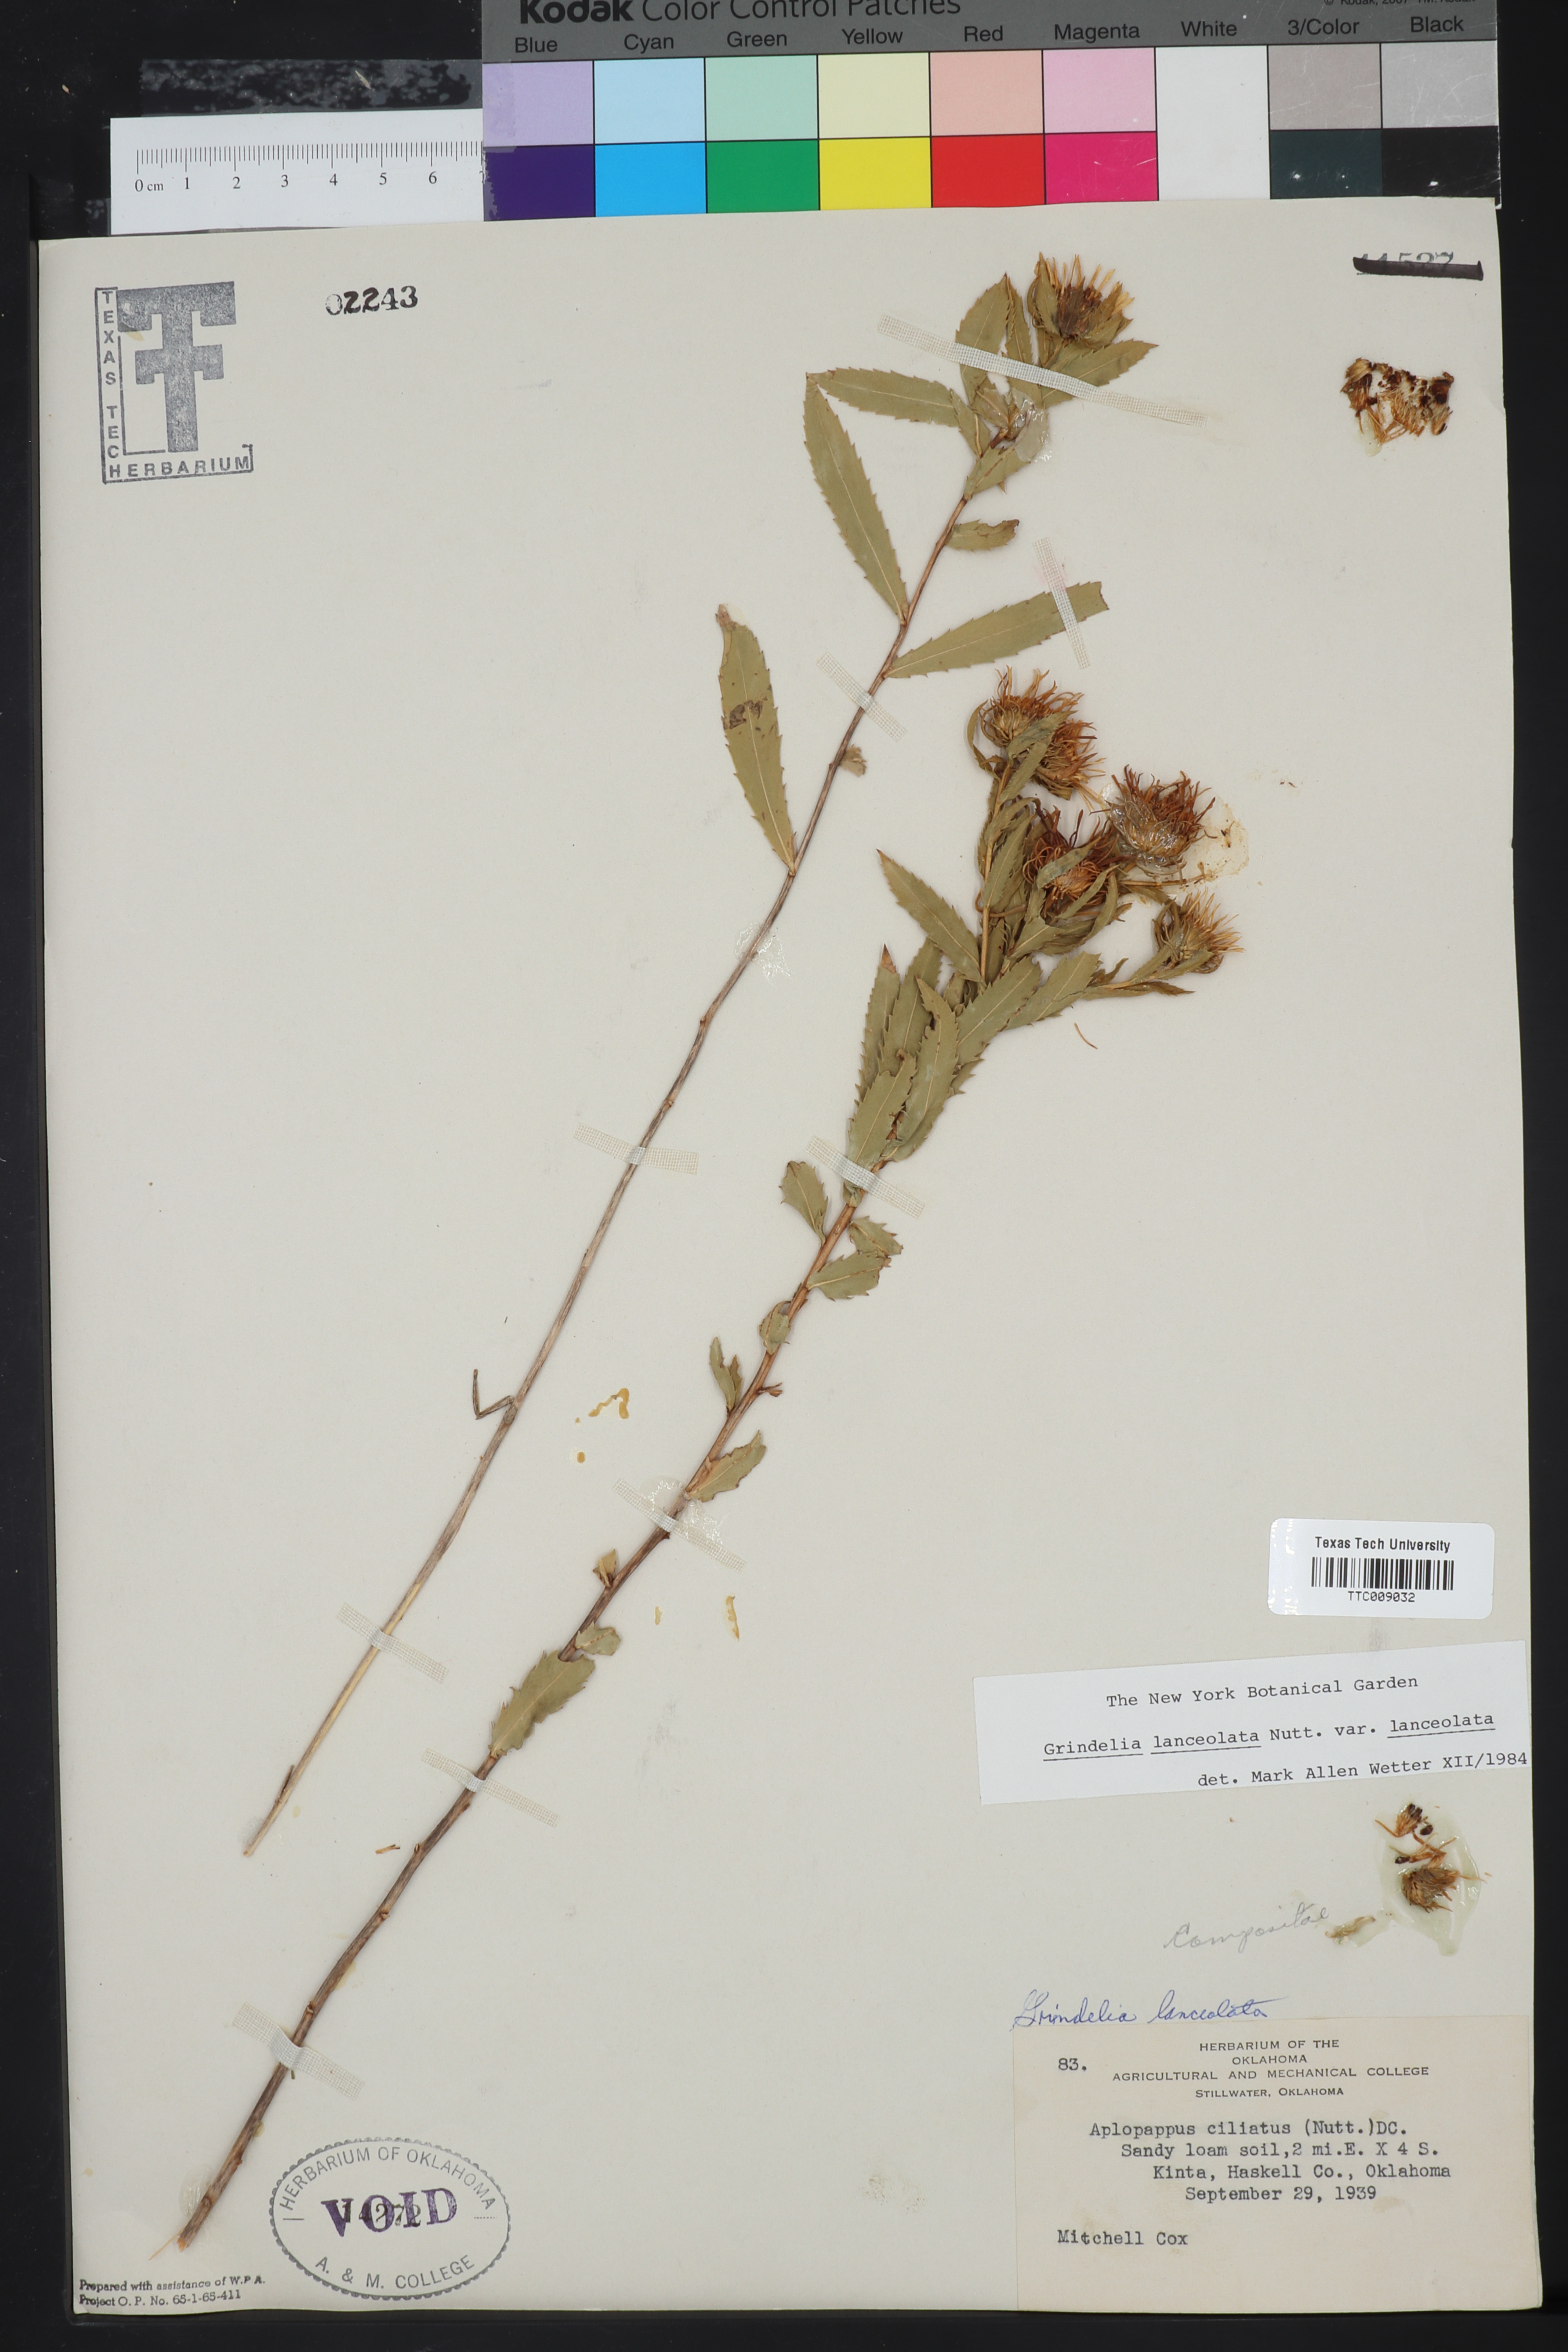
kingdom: Plantae
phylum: Tracheophyta
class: Magnoliopsida
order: Asterales
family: Asteraceae
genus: Grindelia
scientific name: Grindelia lanceolata
